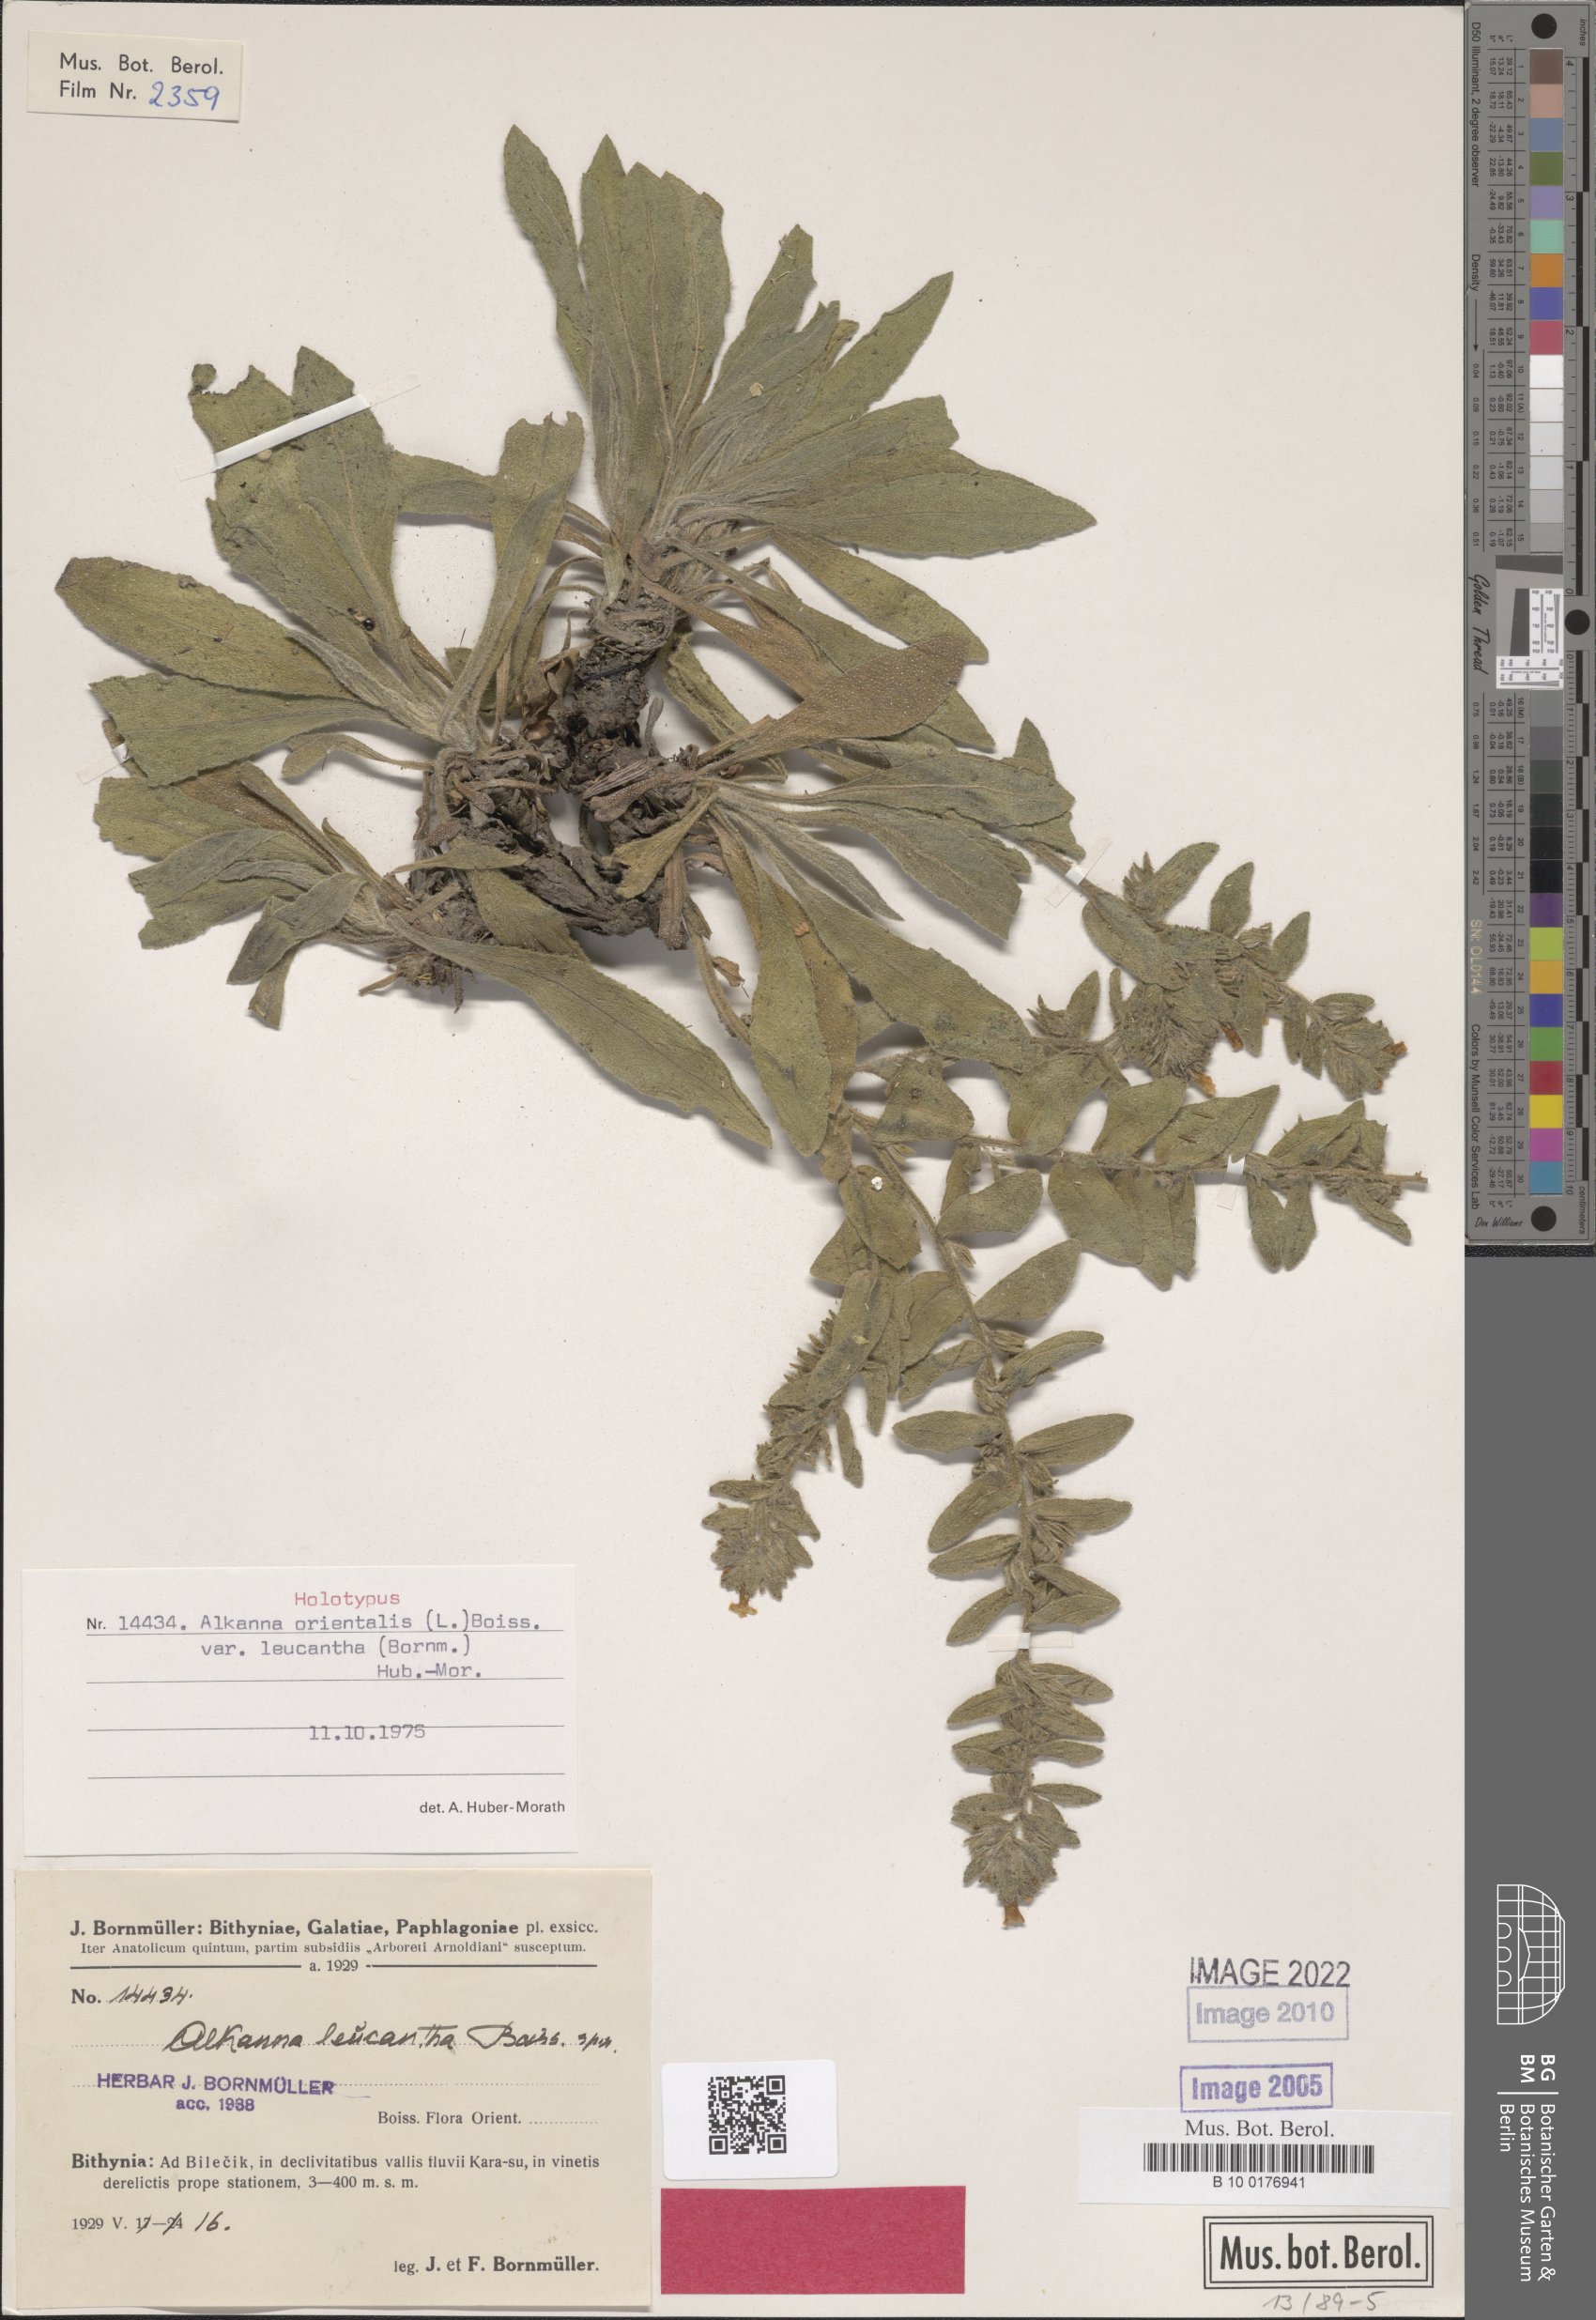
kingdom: Plantae
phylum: Tracheophyta
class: Magnoliopsida
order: Boraginales
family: Boraginaceae
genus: Alkanna
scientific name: Alkanna orientalis
